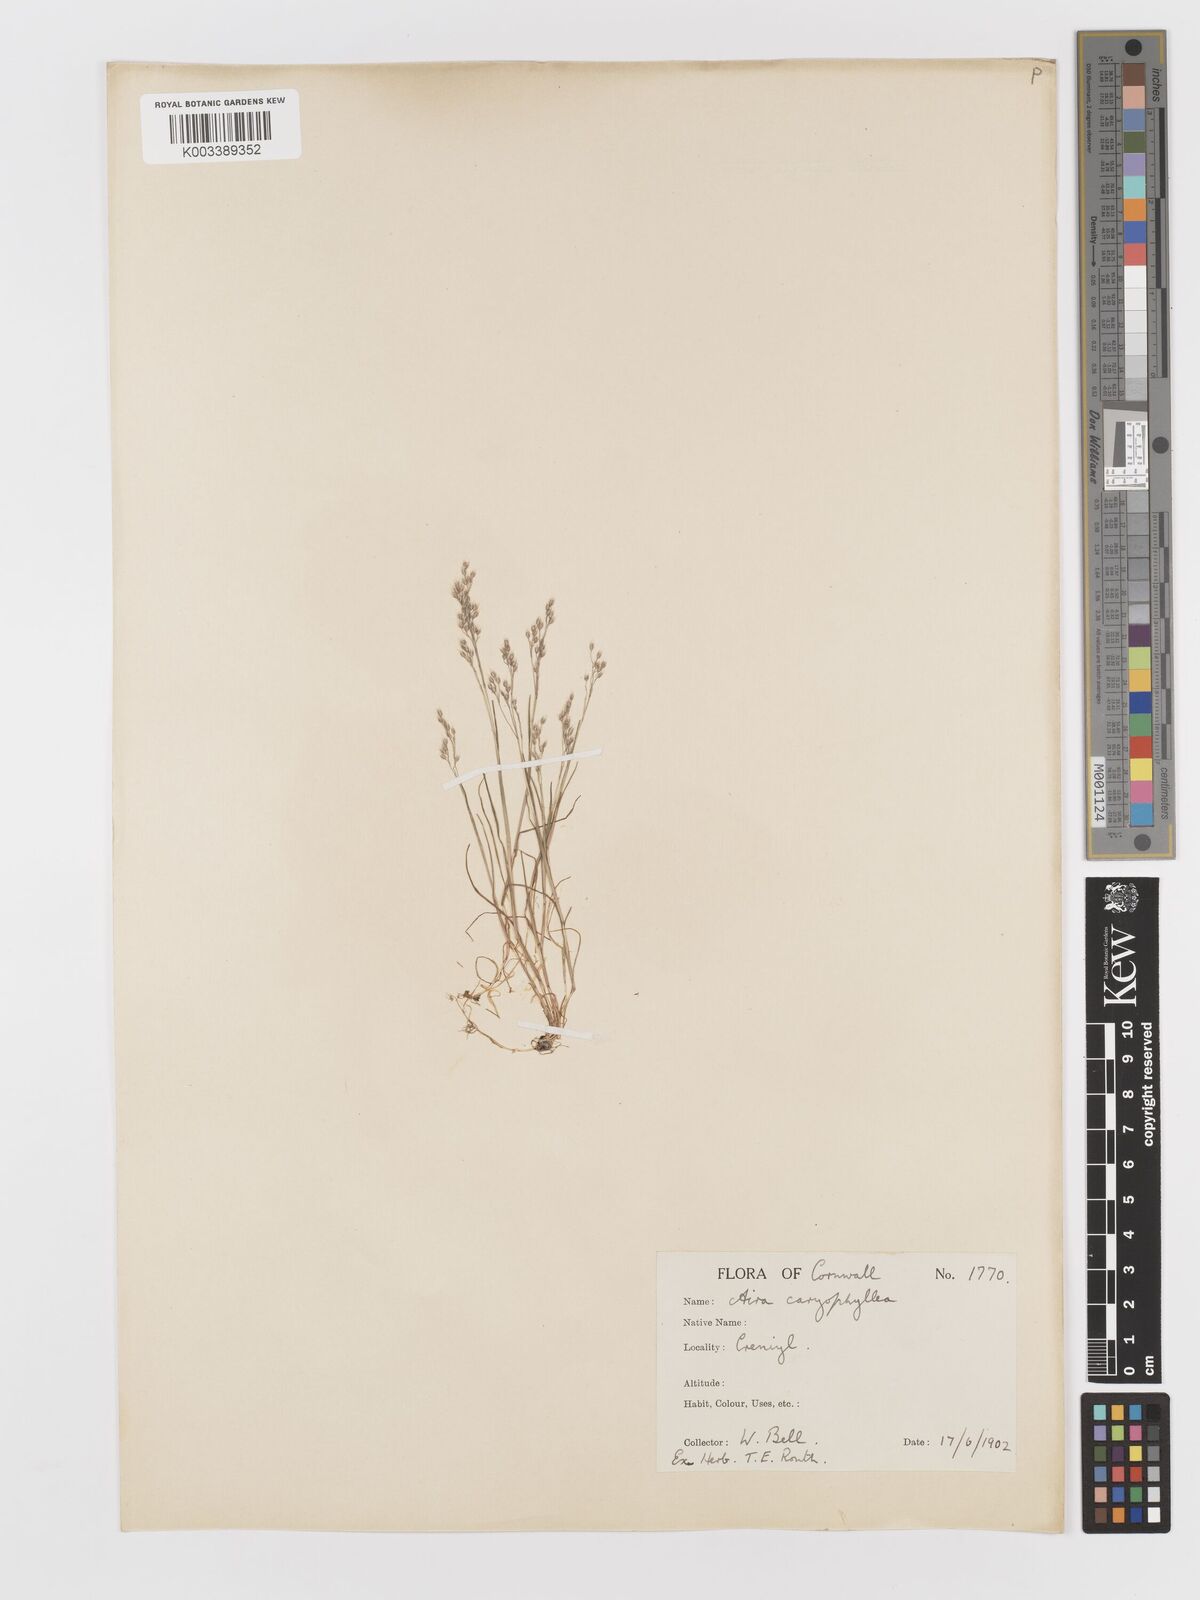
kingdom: Plantae
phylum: Tracheophyta
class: Liliopsida
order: Poales
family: Poaceae
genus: Aira
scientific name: Aira caryophyllea
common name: Silver hairgrass
